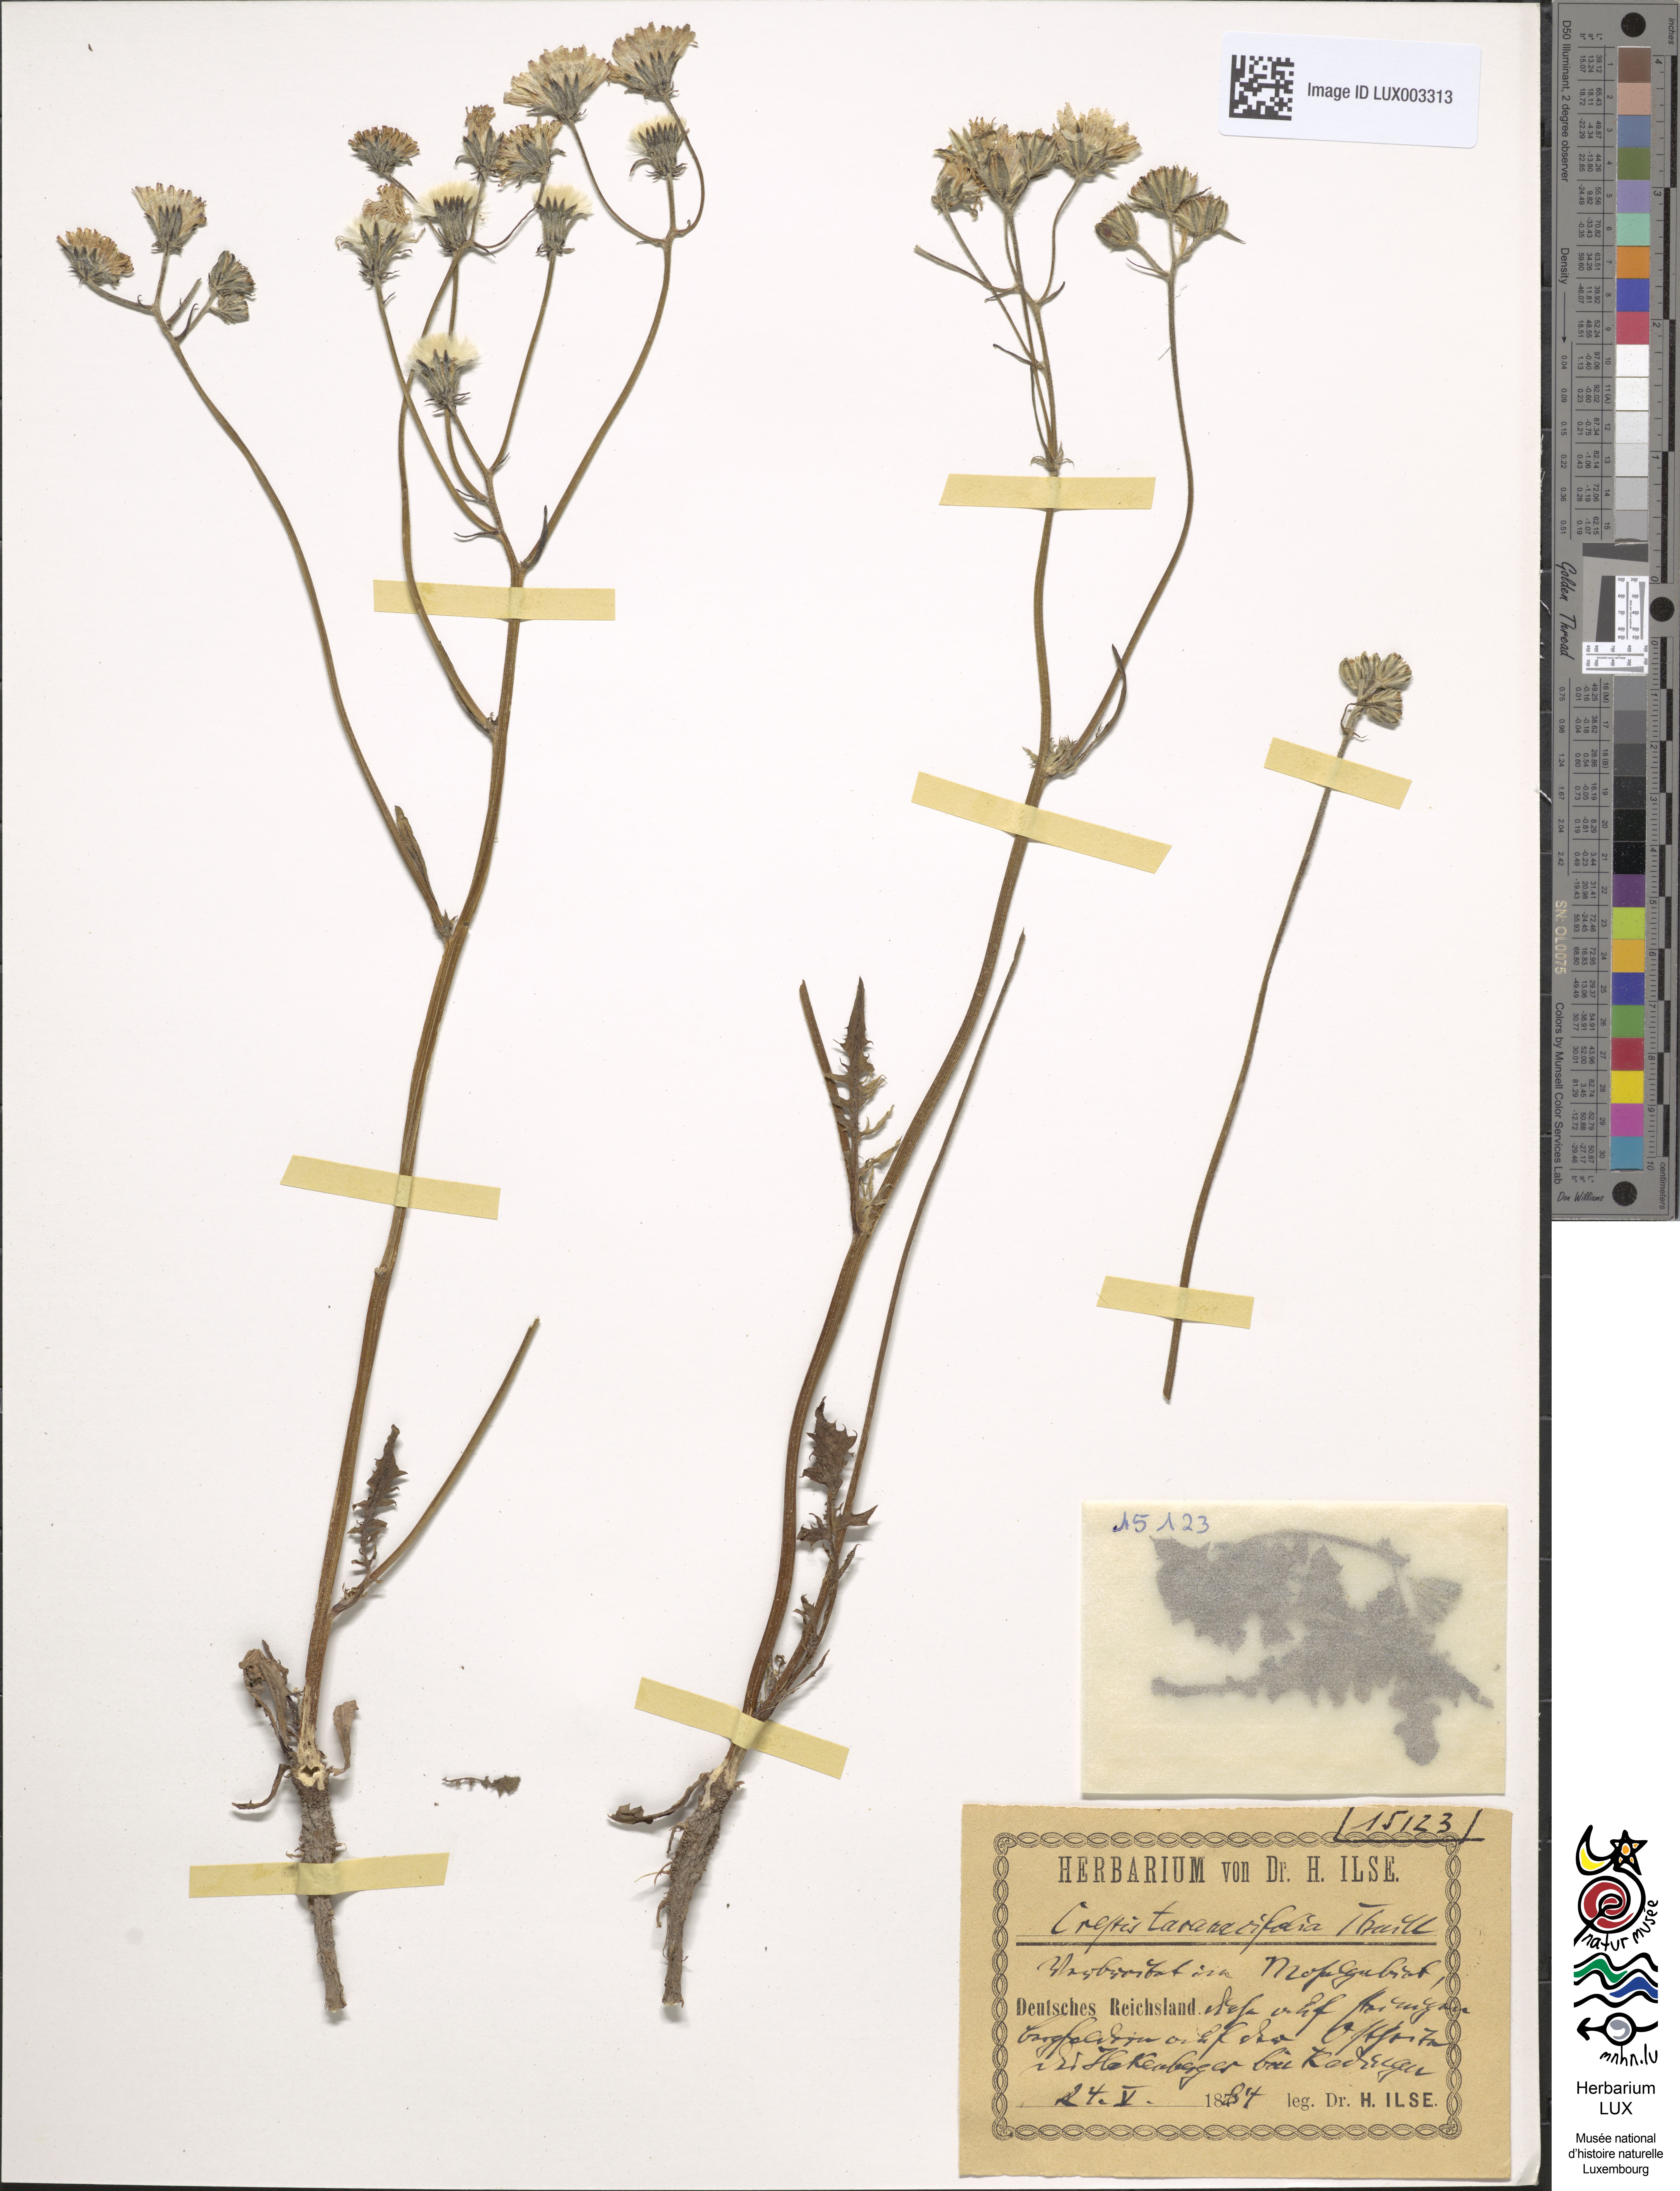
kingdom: Plantae
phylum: Tracheophyta
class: Magnoliopsida
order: Asterales
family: Asteraceae
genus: Crepis
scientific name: Crepis vesicaria
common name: Beaked hawksbeard
